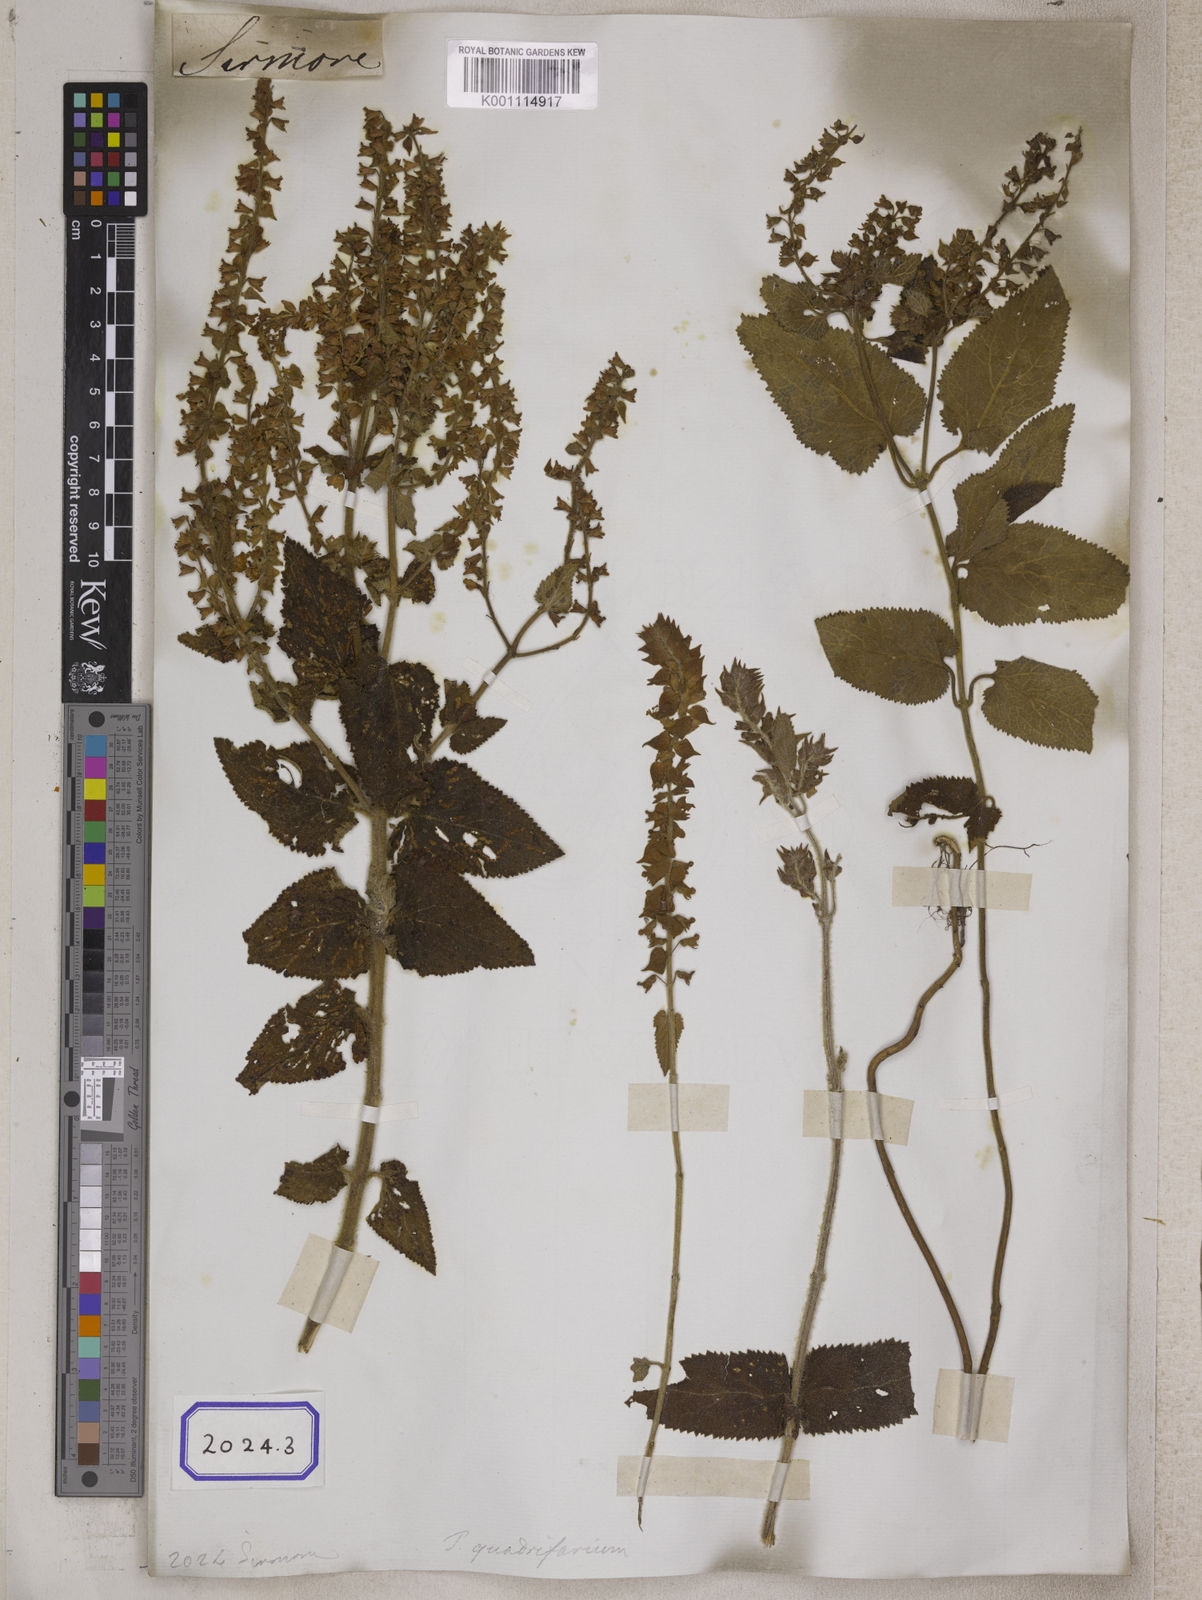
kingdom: Plantae
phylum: Tracheophyta
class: Magnoliopsida
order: Lamiales
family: Lamiaceae
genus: Teucrium
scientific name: Teucrium
